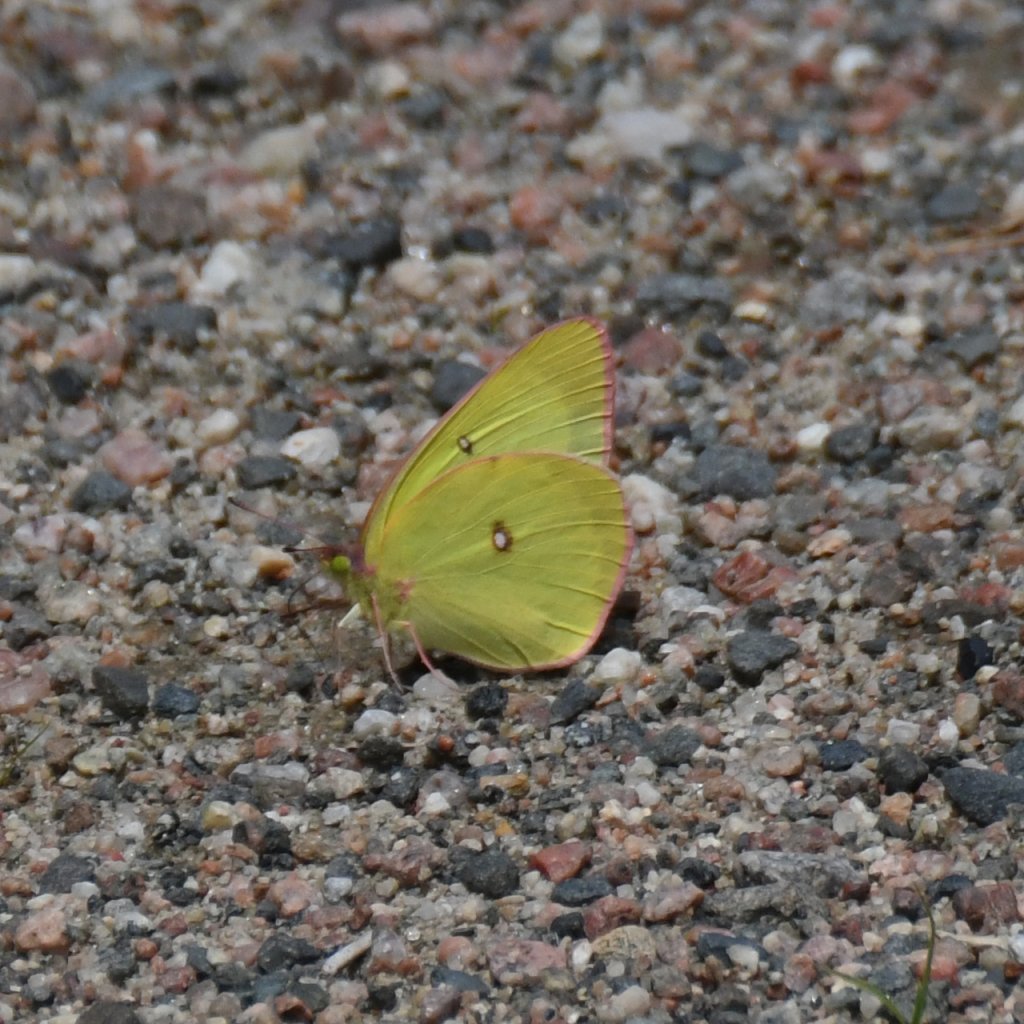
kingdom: Animalia
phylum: Arthropoda
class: Insecta
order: Lepidoptera
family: Pieridae
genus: Colias
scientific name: Colias interior
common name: Pink-edged Sulphur
